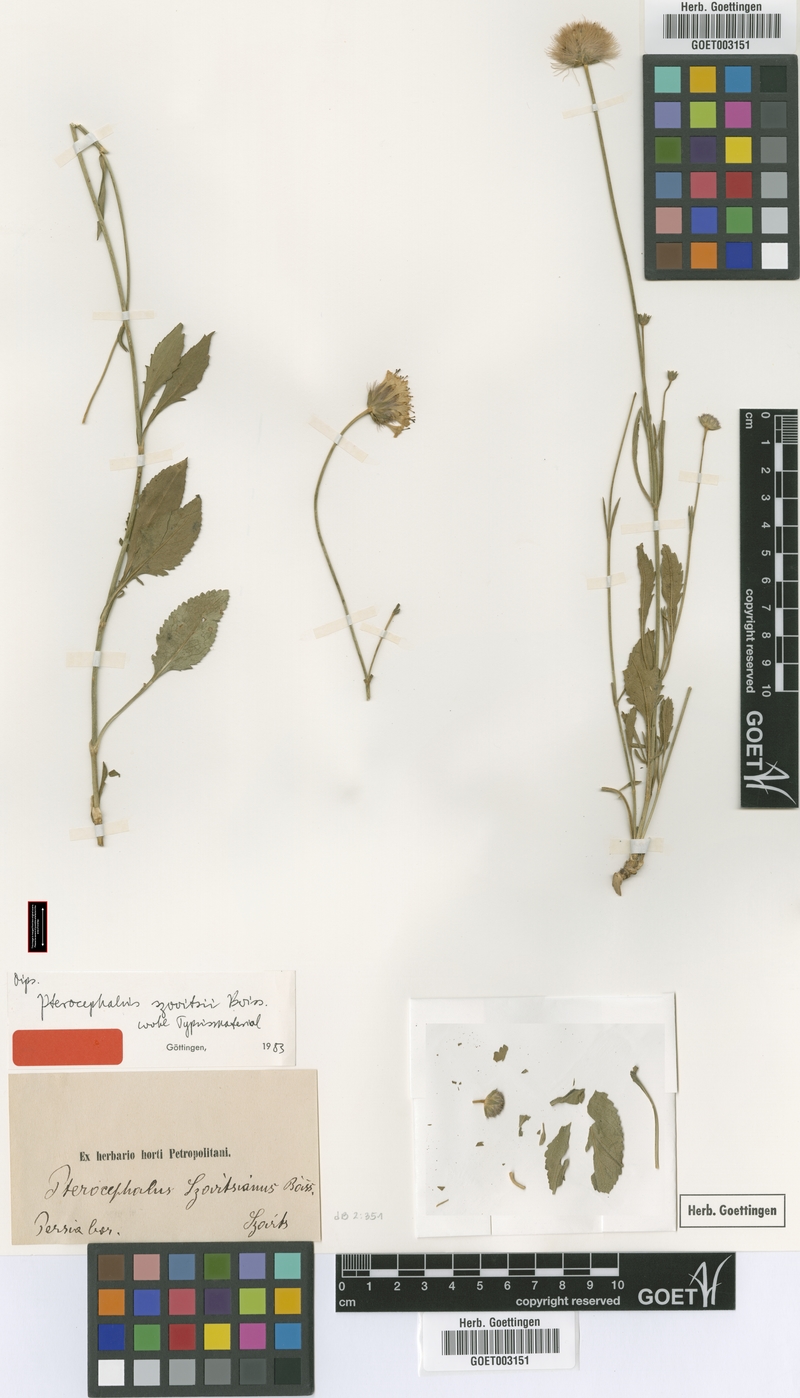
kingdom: Plantae
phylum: Tracheophyta
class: Magnoliopsida
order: Dipsacales
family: Caprifoliaceae
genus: Pterocephalus
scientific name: Pterocephalus szovitsii
